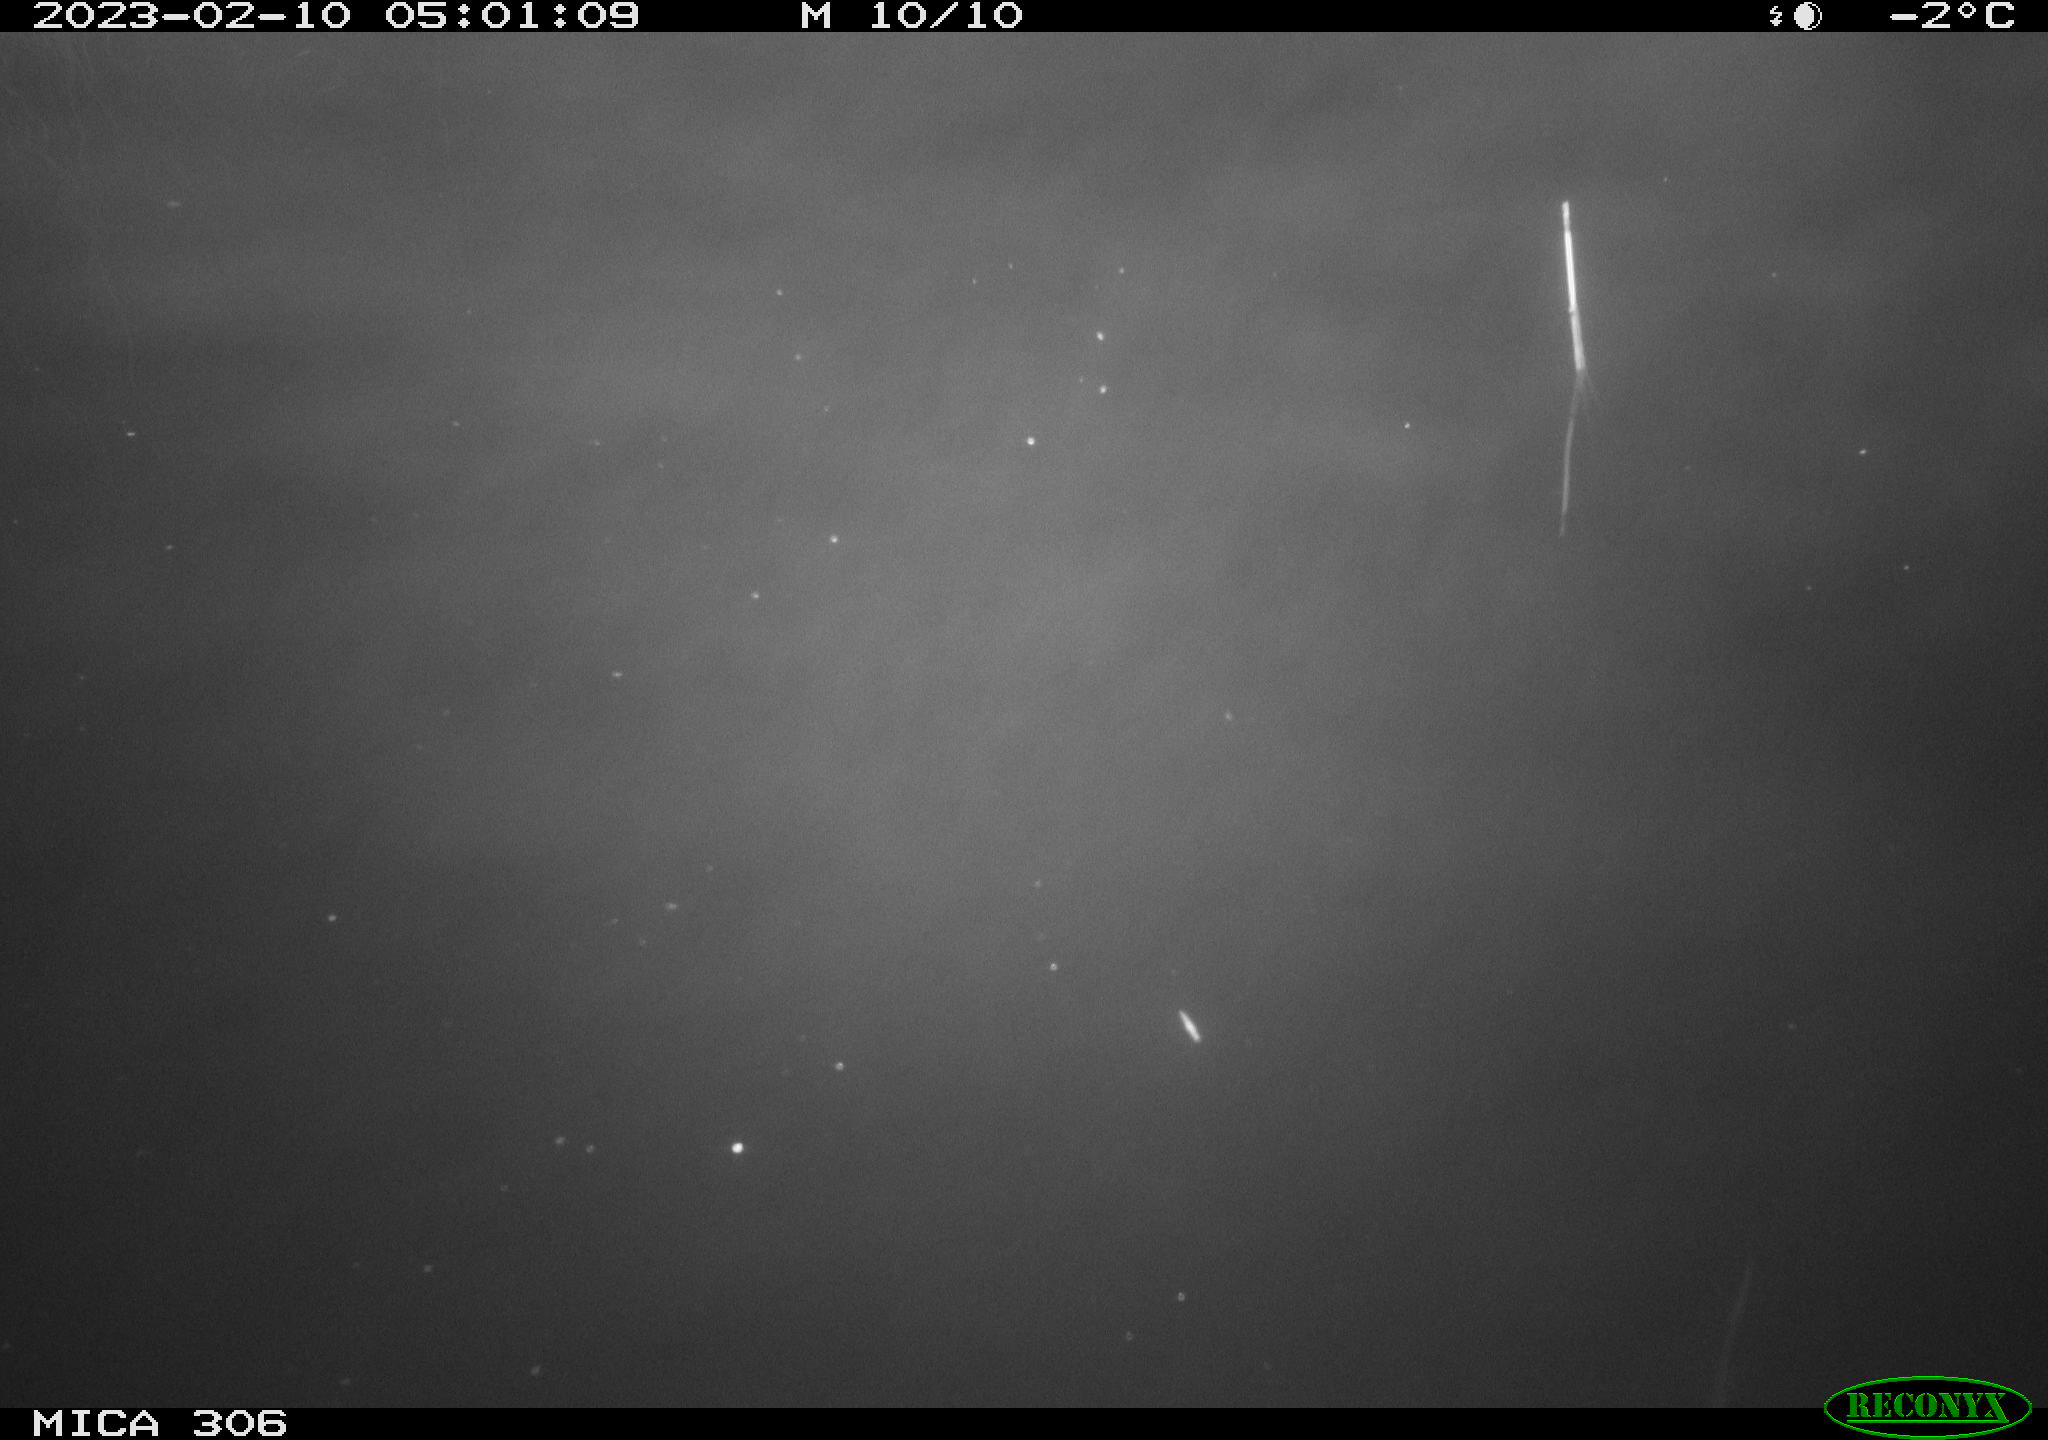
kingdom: Animalia
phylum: Chordata
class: Mammalia
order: Rodentia
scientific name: Rodentia
